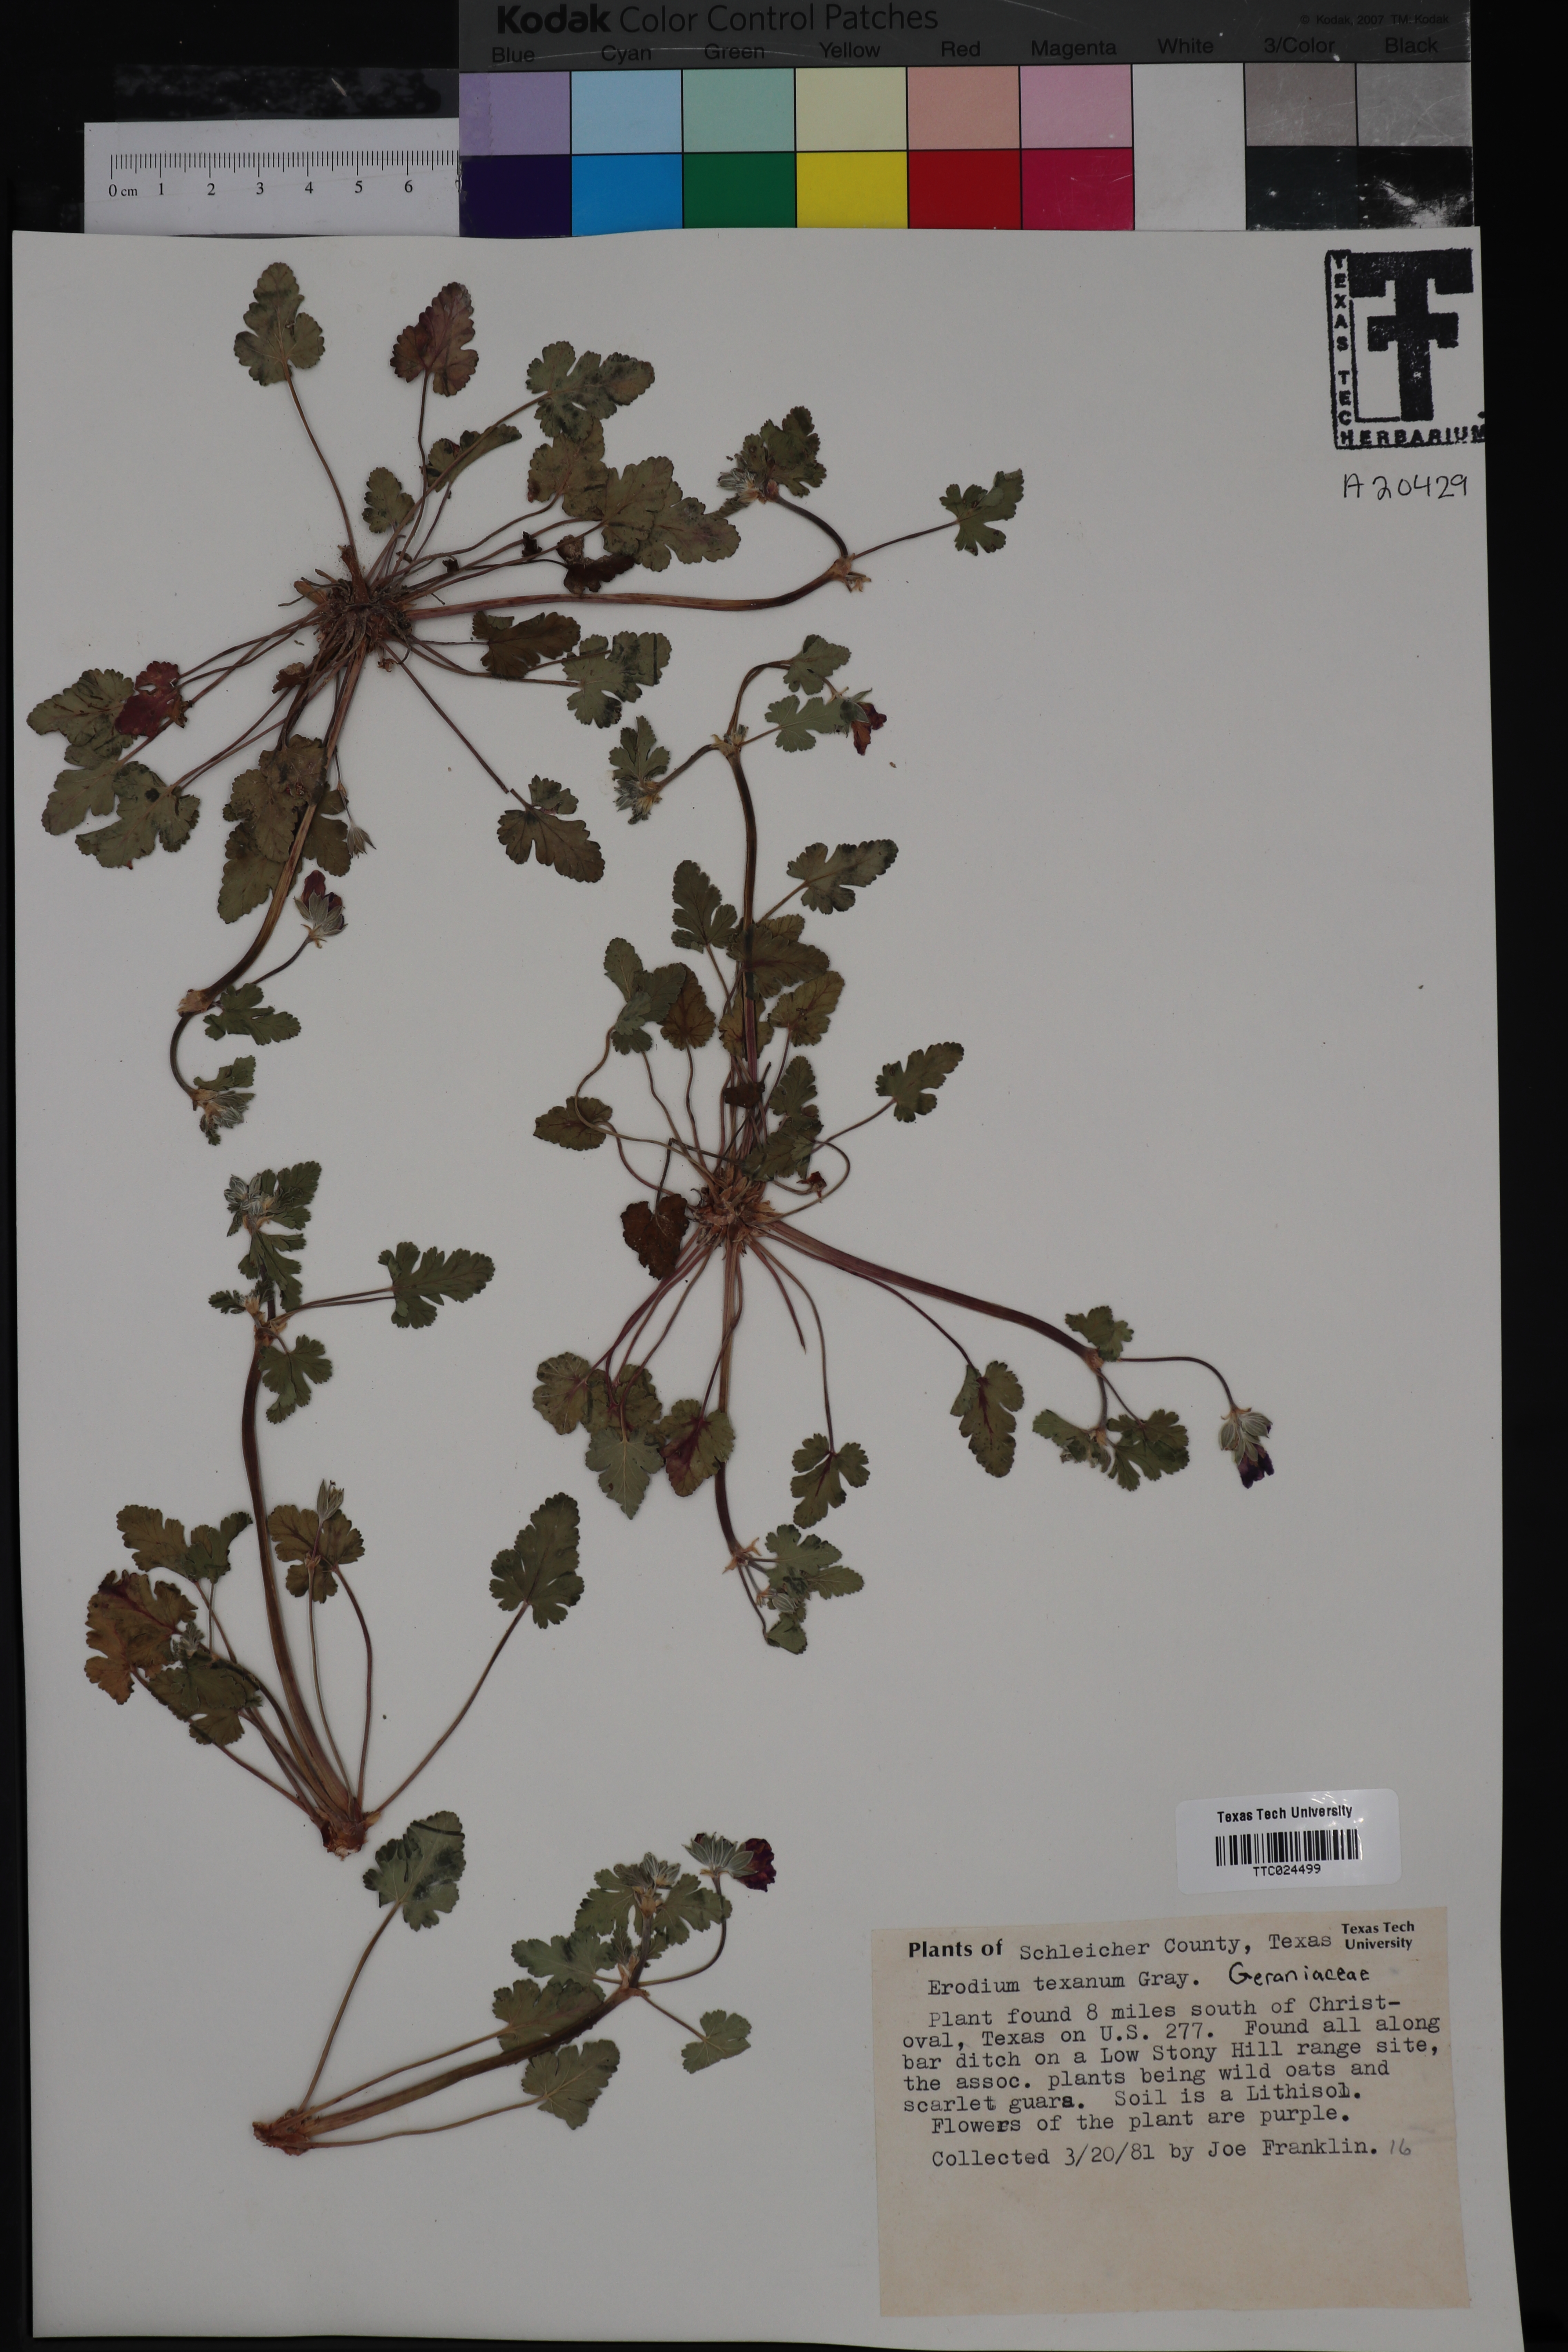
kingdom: Plantae
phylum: Tracheophyta
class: Magnoliopsida
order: Geraniales
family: Geraniaceae
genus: Erodium
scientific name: Erodium texanum
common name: Texas stork's-bill
